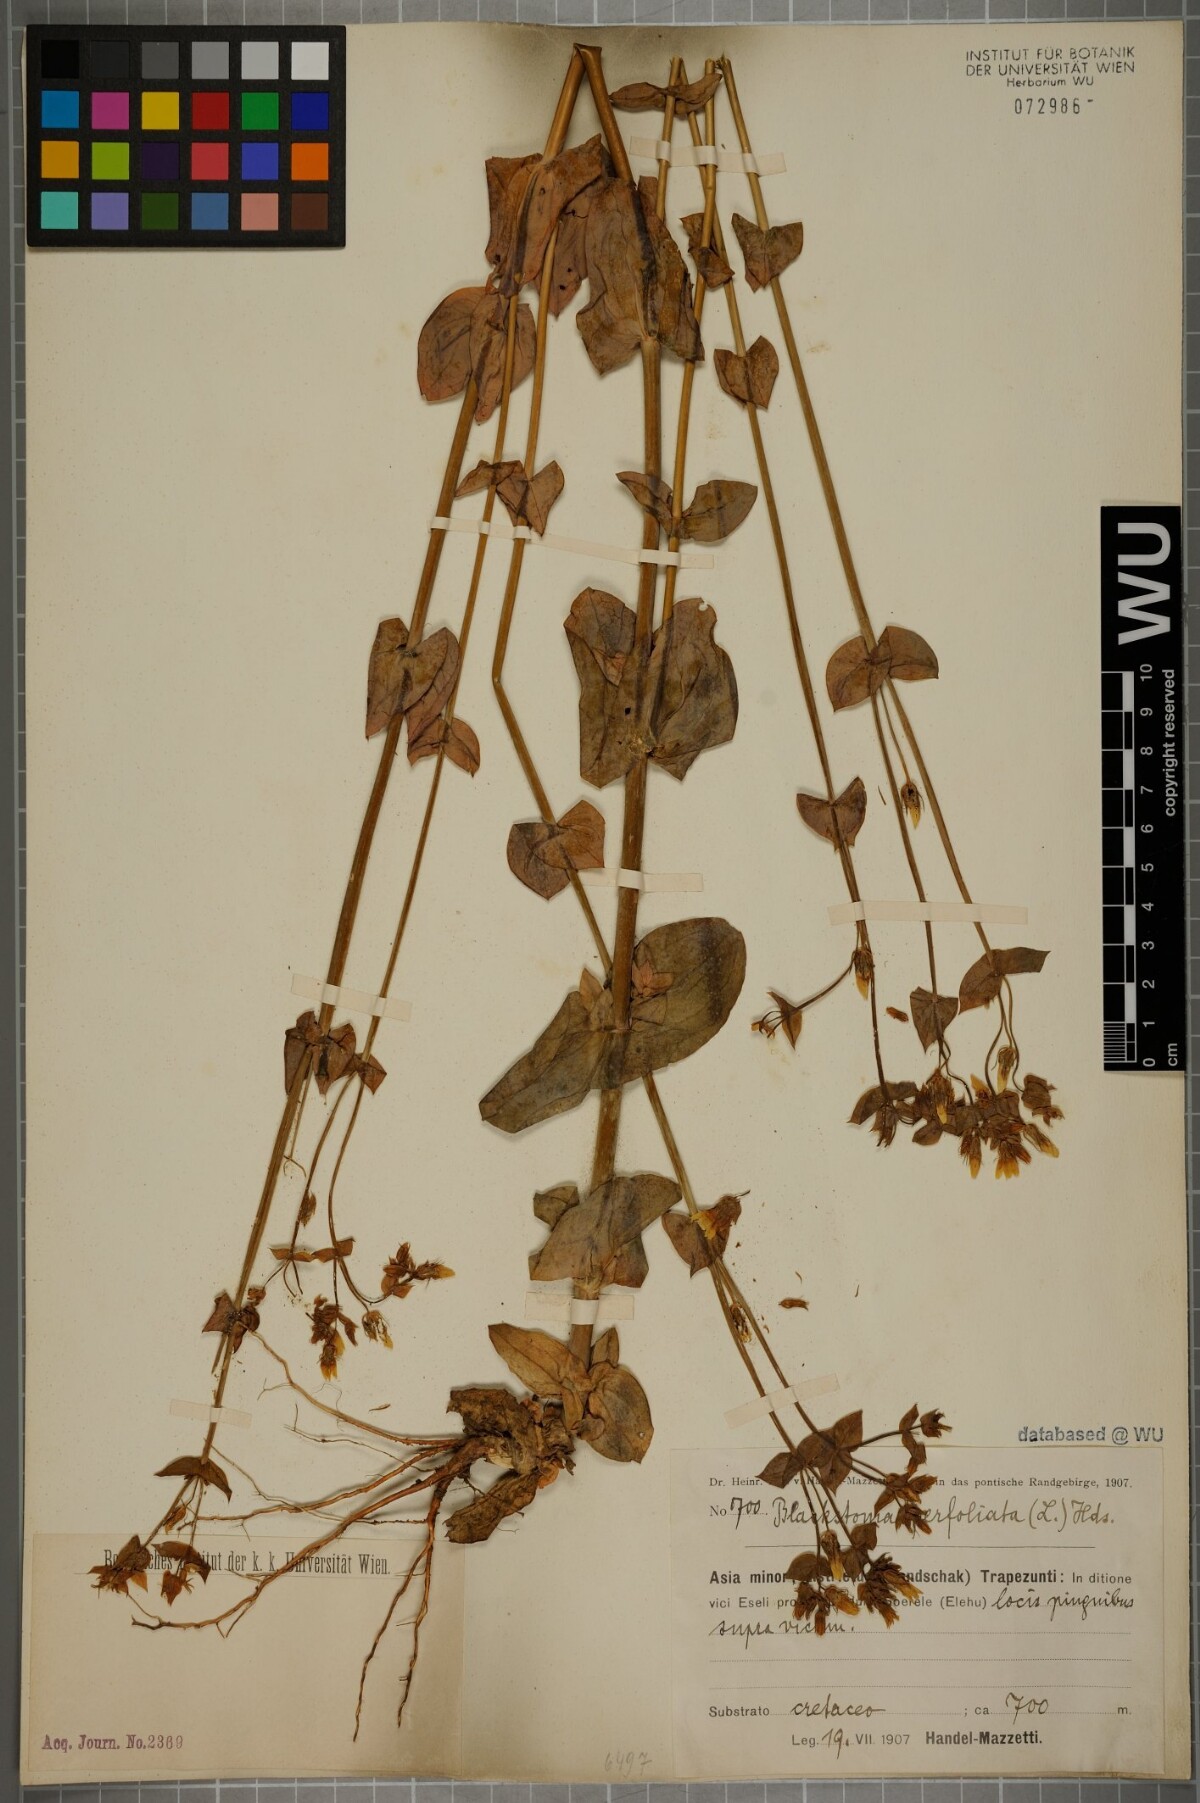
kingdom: Plantae
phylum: Tracheophyta
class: Magnoliopsida
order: Gentianales
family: Gentianaceae
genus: Blackstonia
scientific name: Blackstonia perfoliata
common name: Yellow-wort
